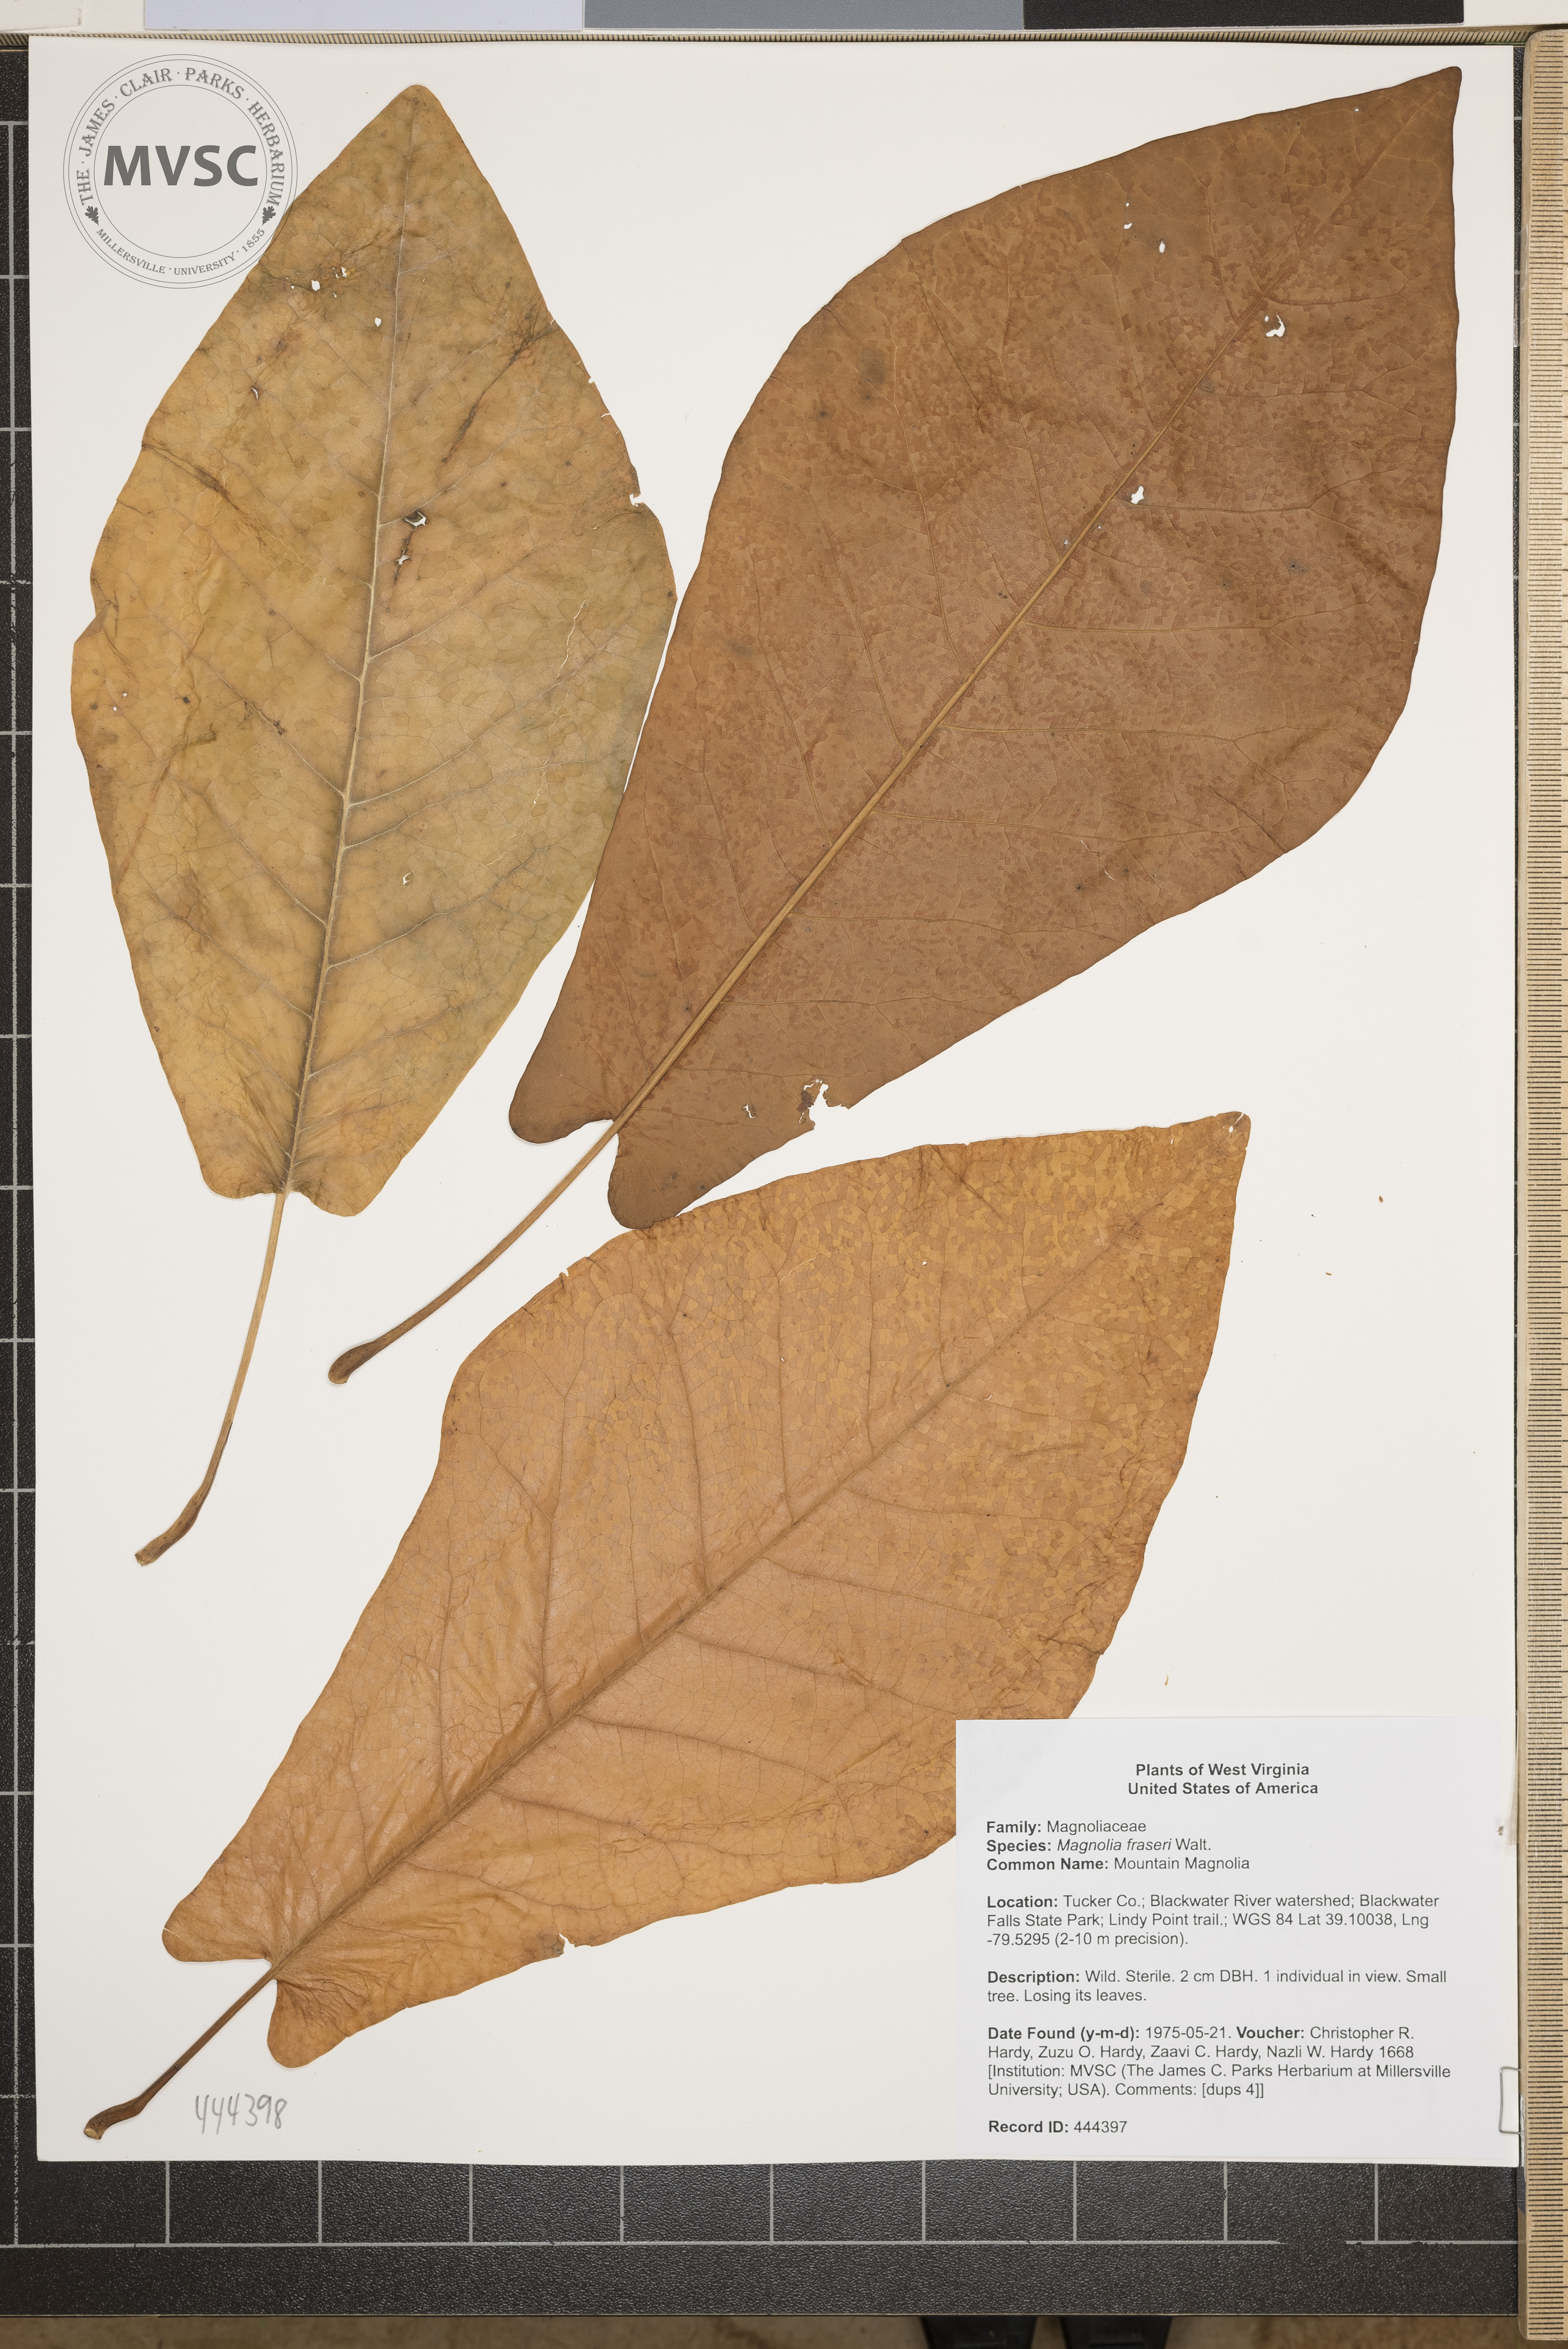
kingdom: Plantae
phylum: Tracheophyta
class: Magnoliopsida
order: Magnoliales
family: Magnoliaceae
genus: Magnolia
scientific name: Magnolia fraseri
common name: Mountain Magnolia
